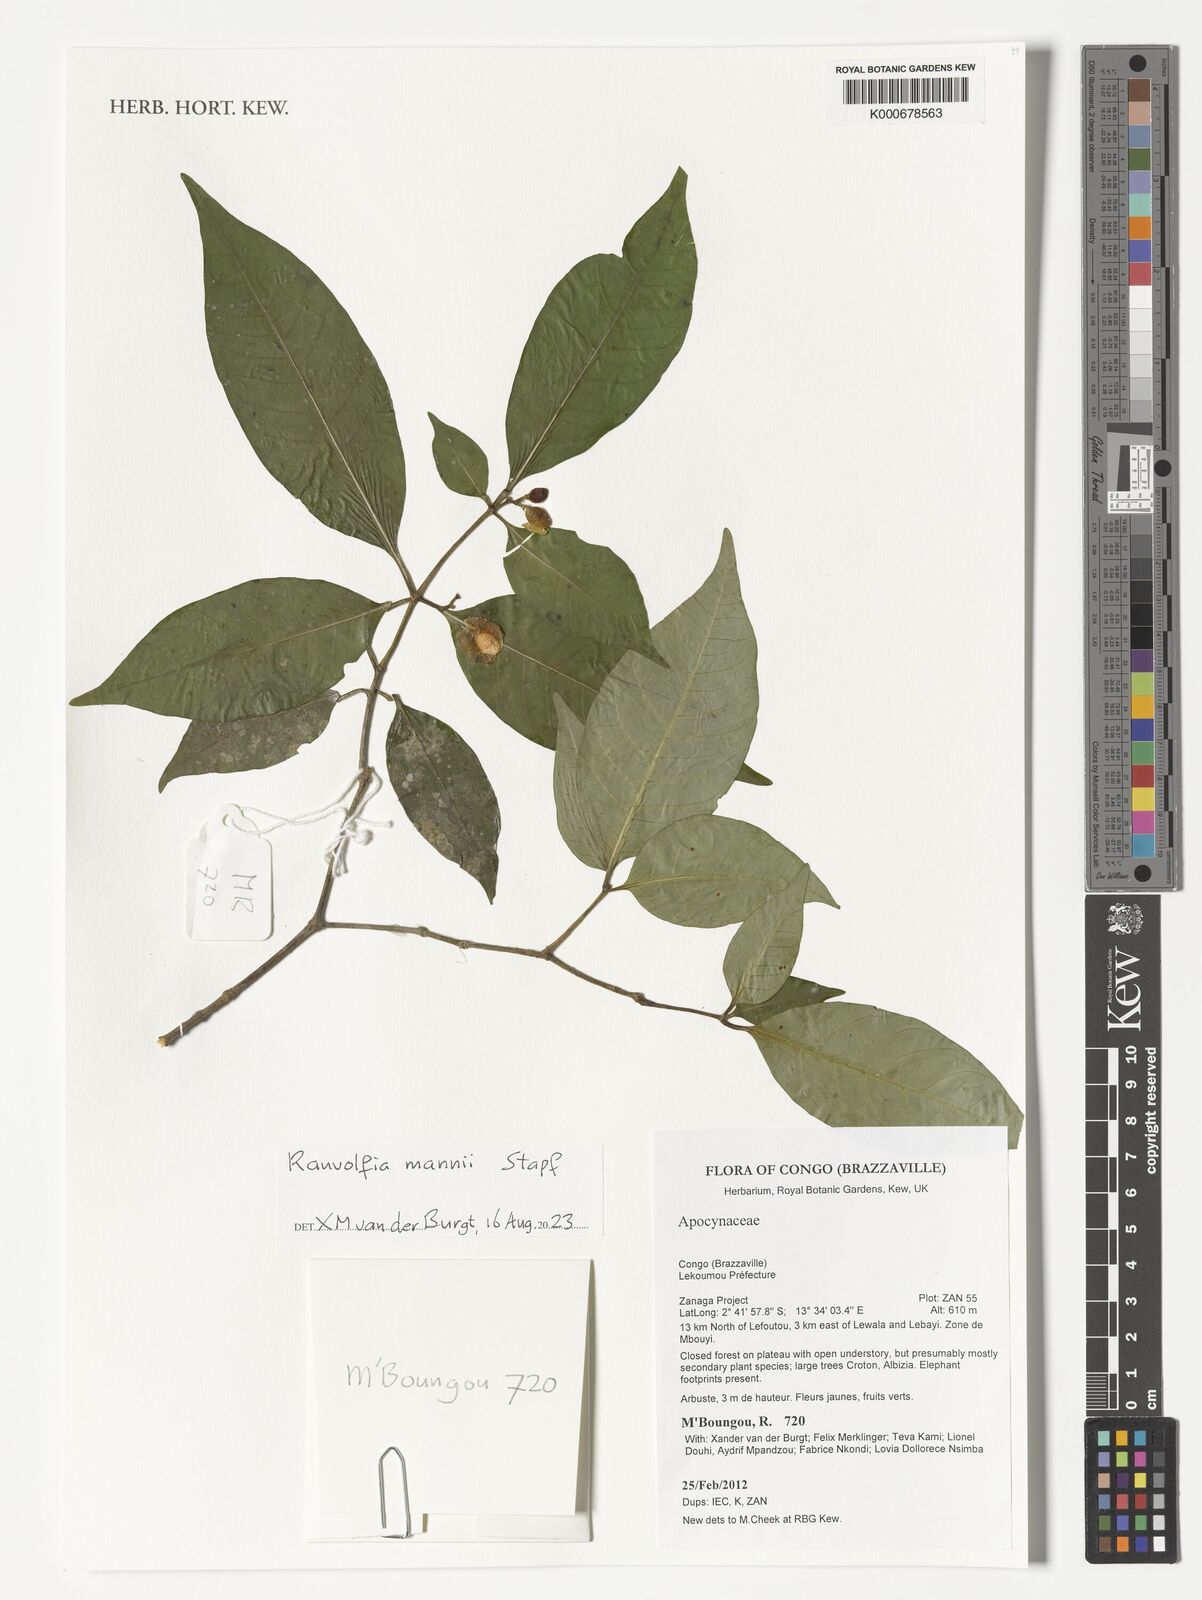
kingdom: Plantae
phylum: Tracheophyta
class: Magnoliopsida
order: Gentianales
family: Apocynaceae
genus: Rauvolfia
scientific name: Rauvolfia mannii
